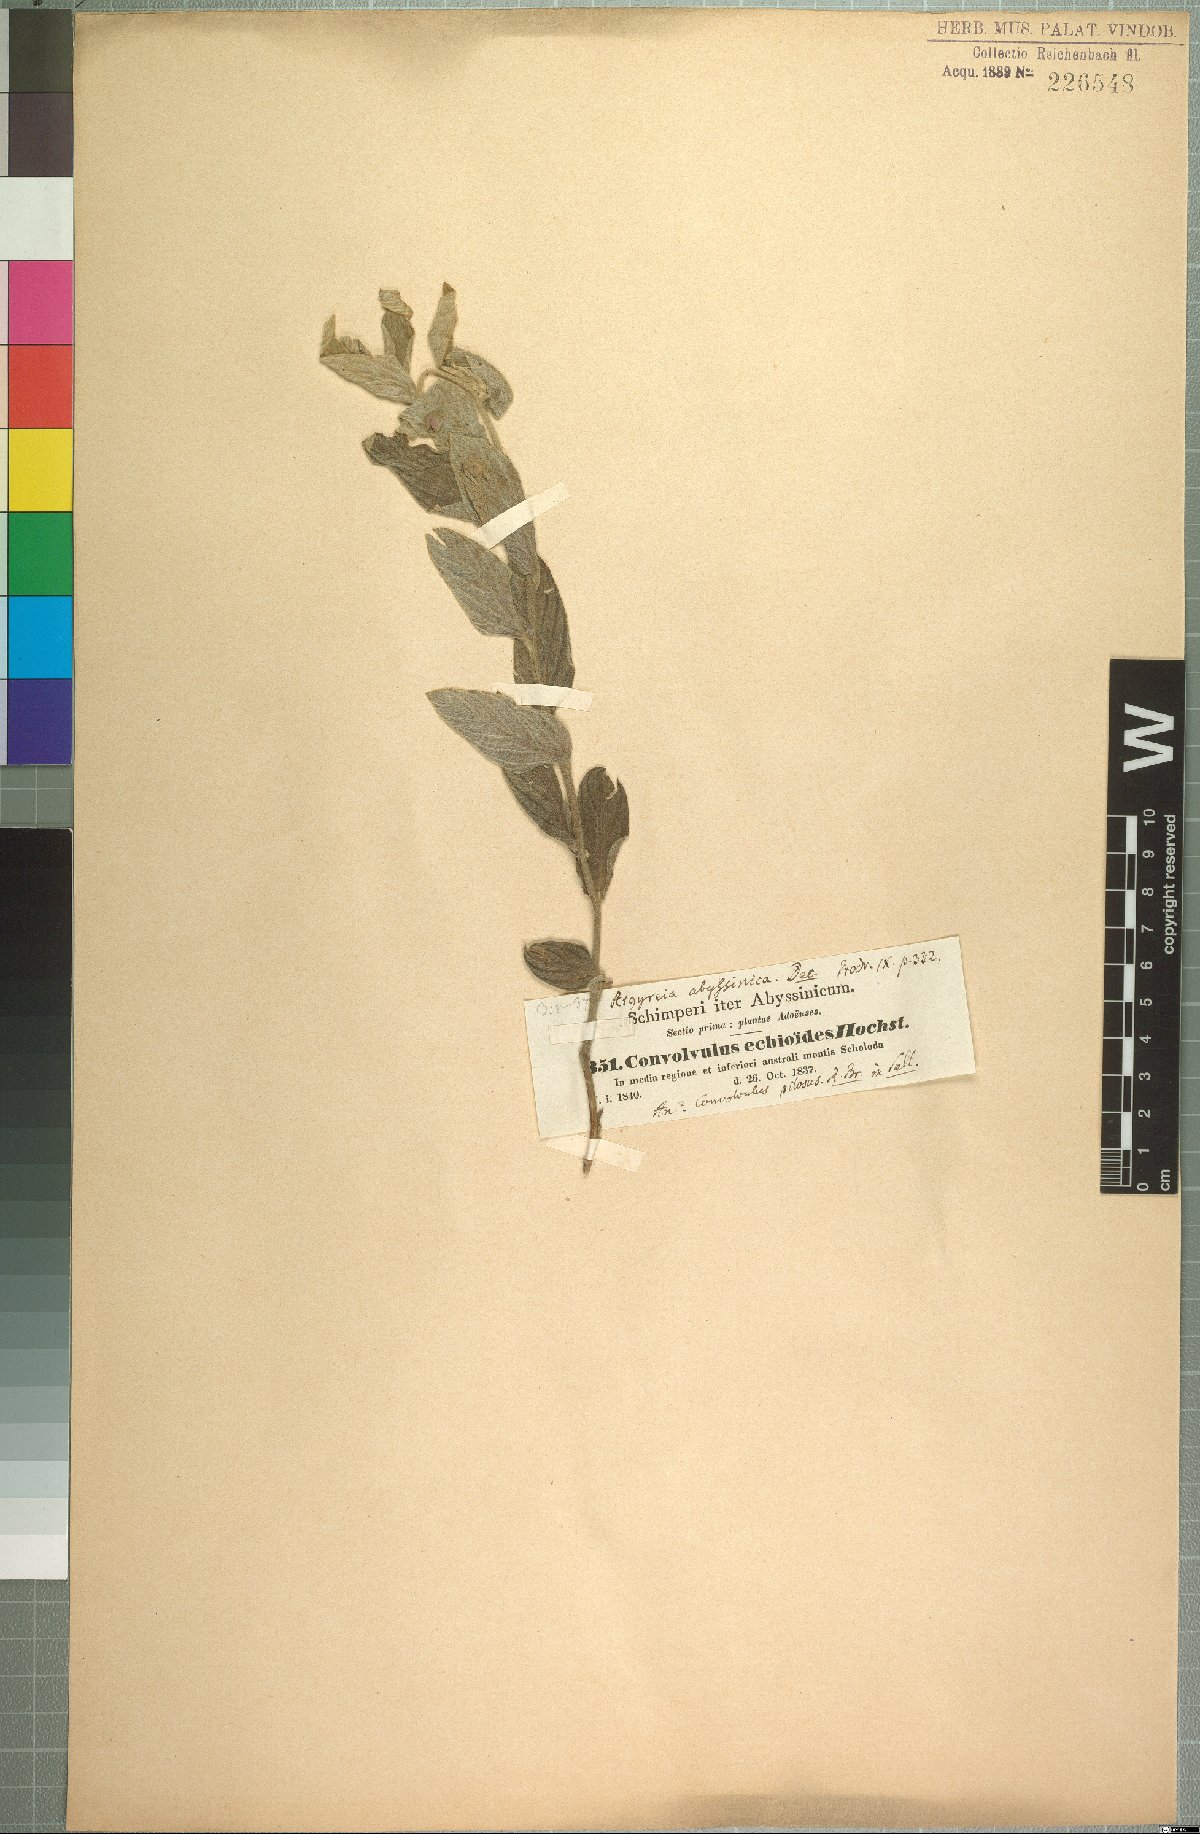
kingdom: Plantae
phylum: Tracheophyta
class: Magnoliopsida
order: Solanales
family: Convolvulaceae
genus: Ipomoea
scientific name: Ipomoea abyssinica
